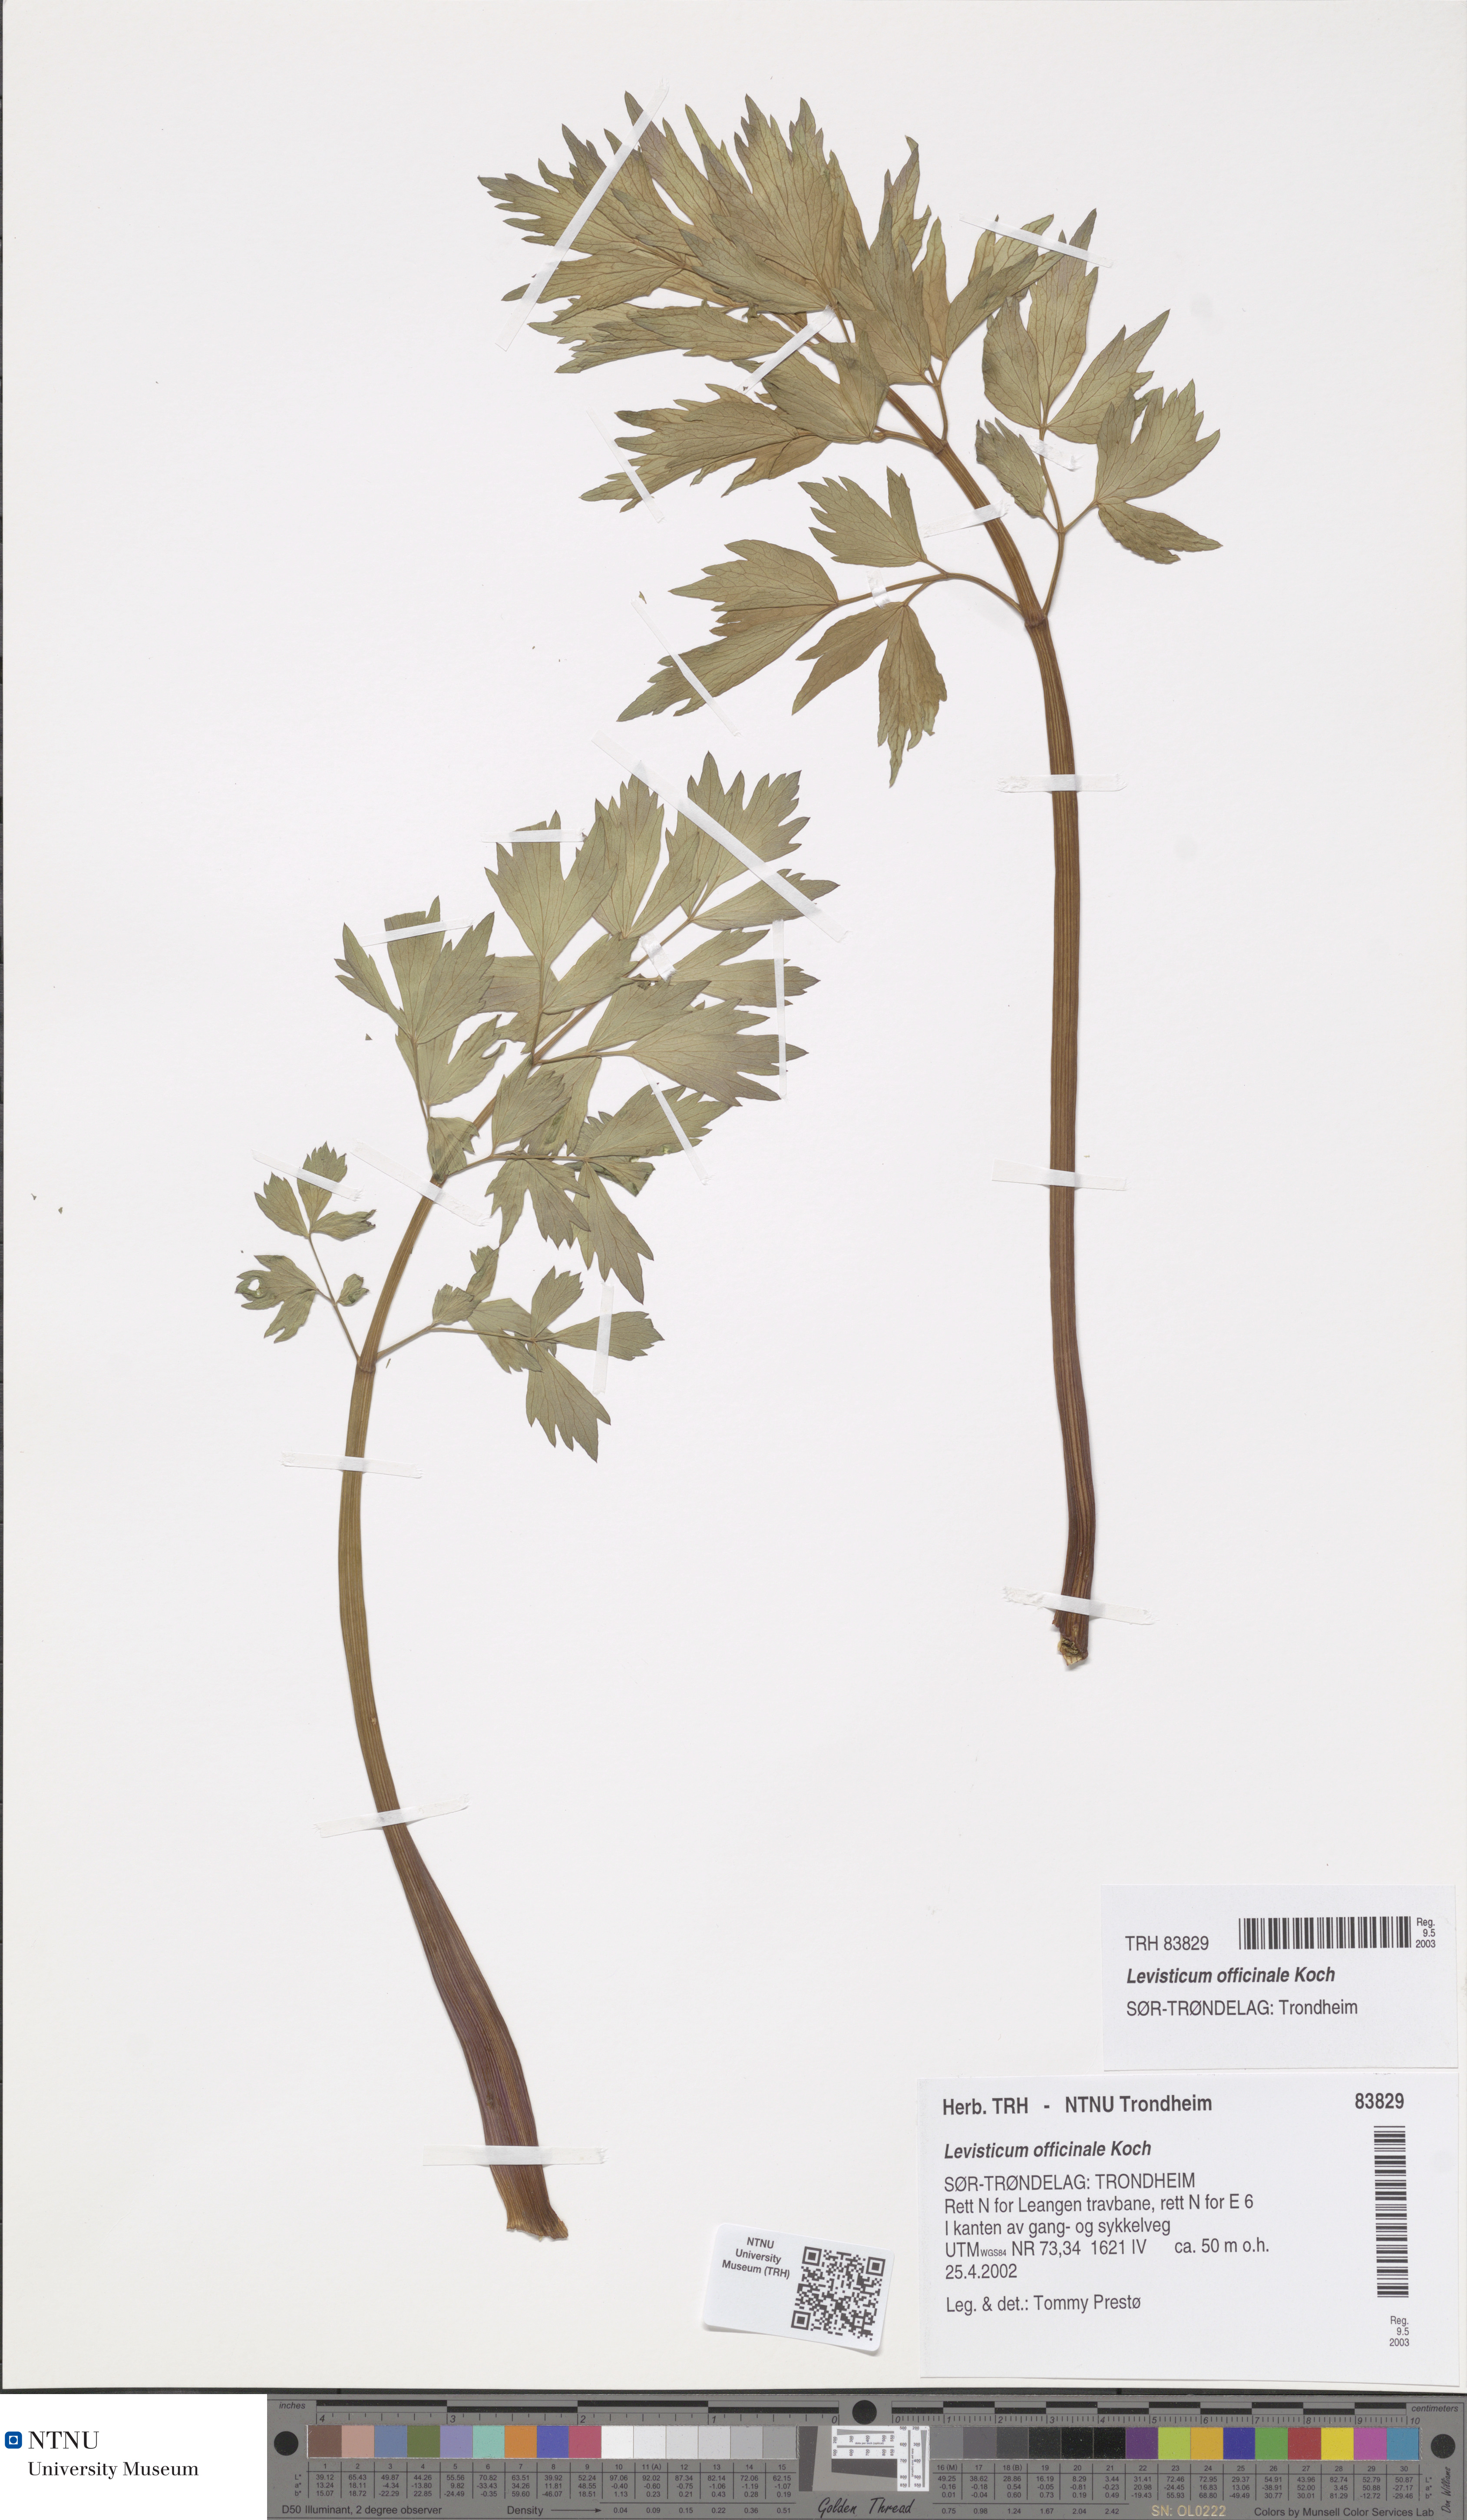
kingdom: Plantae
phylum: Tracheophyta
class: Magnoliopsida
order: Apiales
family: Apiaceae
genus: Levisticum
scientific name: Levisticum officinale
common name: Lovage
